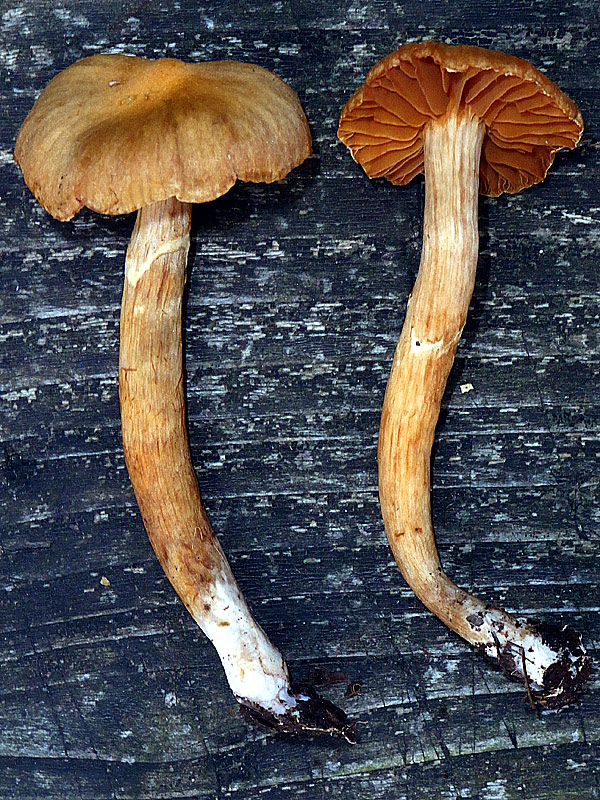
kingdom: Fungi
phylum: Basidiomycota
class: Agaricomycetes
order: Agaricales
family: Cortinariaceae
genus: Cortinarius
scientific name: Cortinarius lacustris
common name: siennapuklet slørhat
